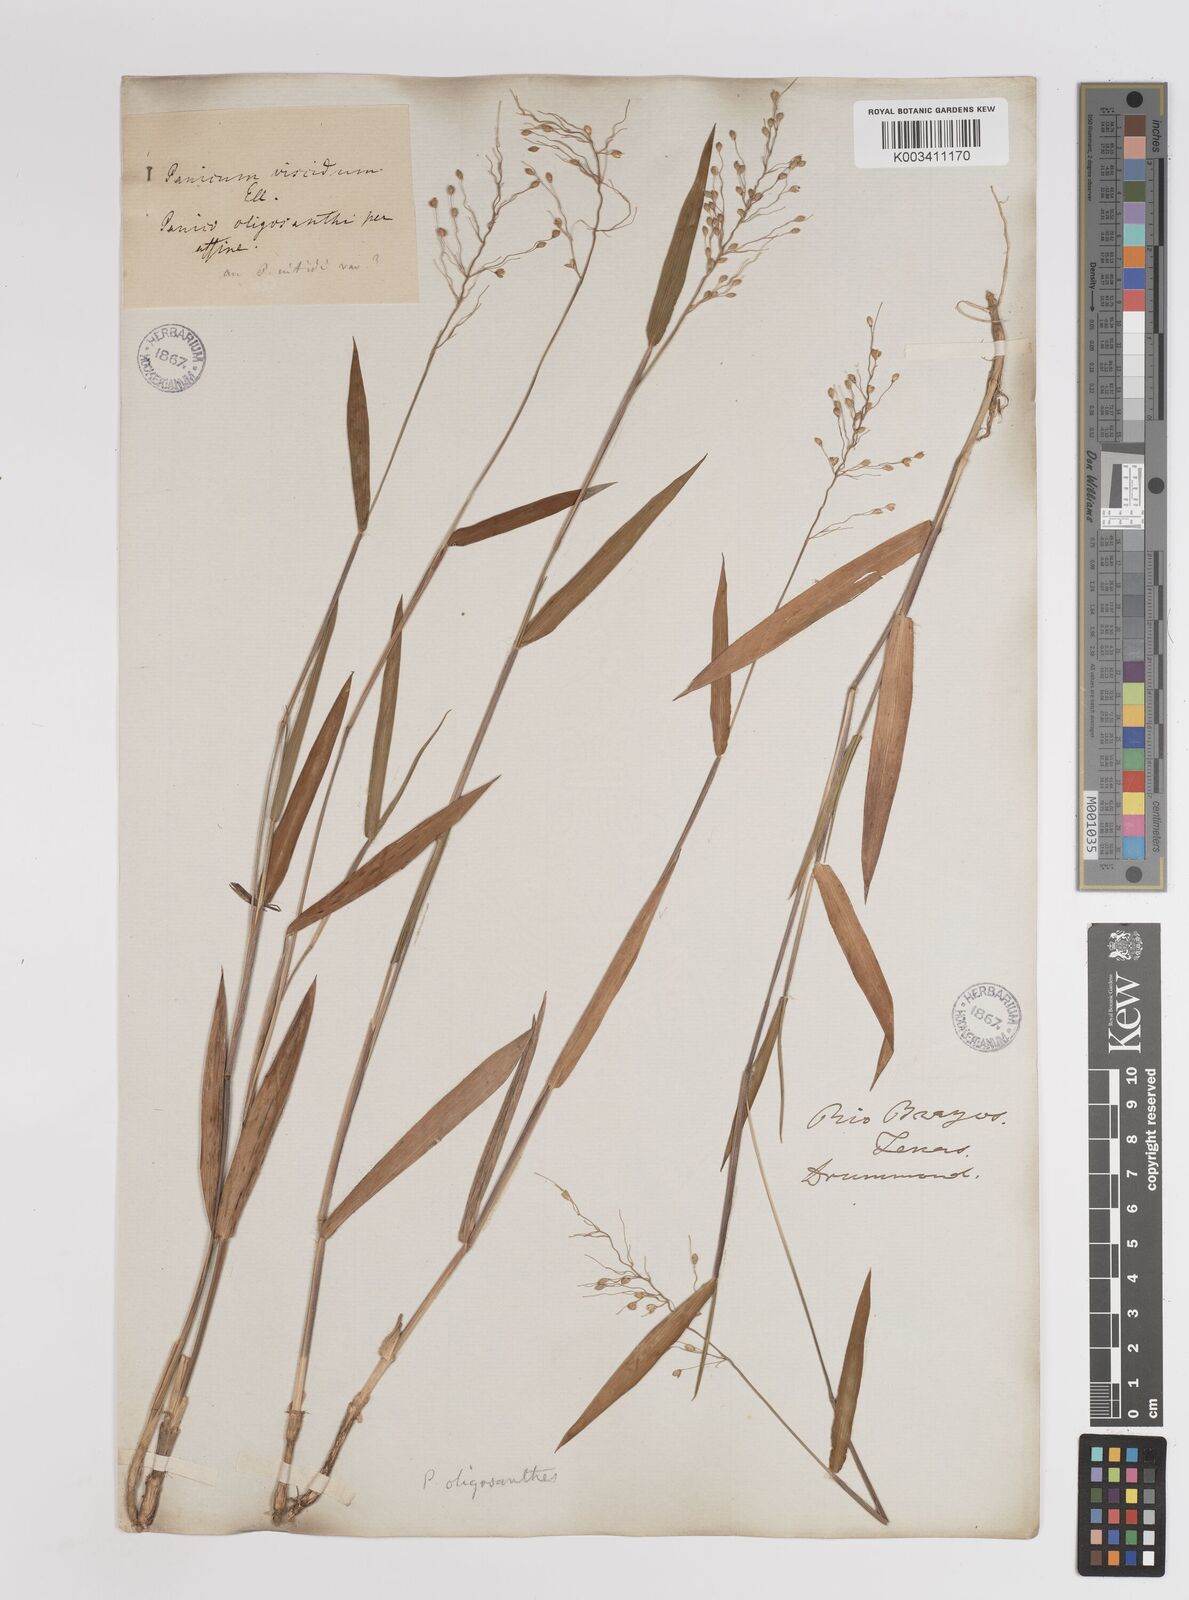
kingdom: Plantae
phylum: Tracheophyta
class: Liliopsida
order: Poales
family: Poaceae
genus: Dichanthelium
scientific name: Dichanthelium scribnerianum
